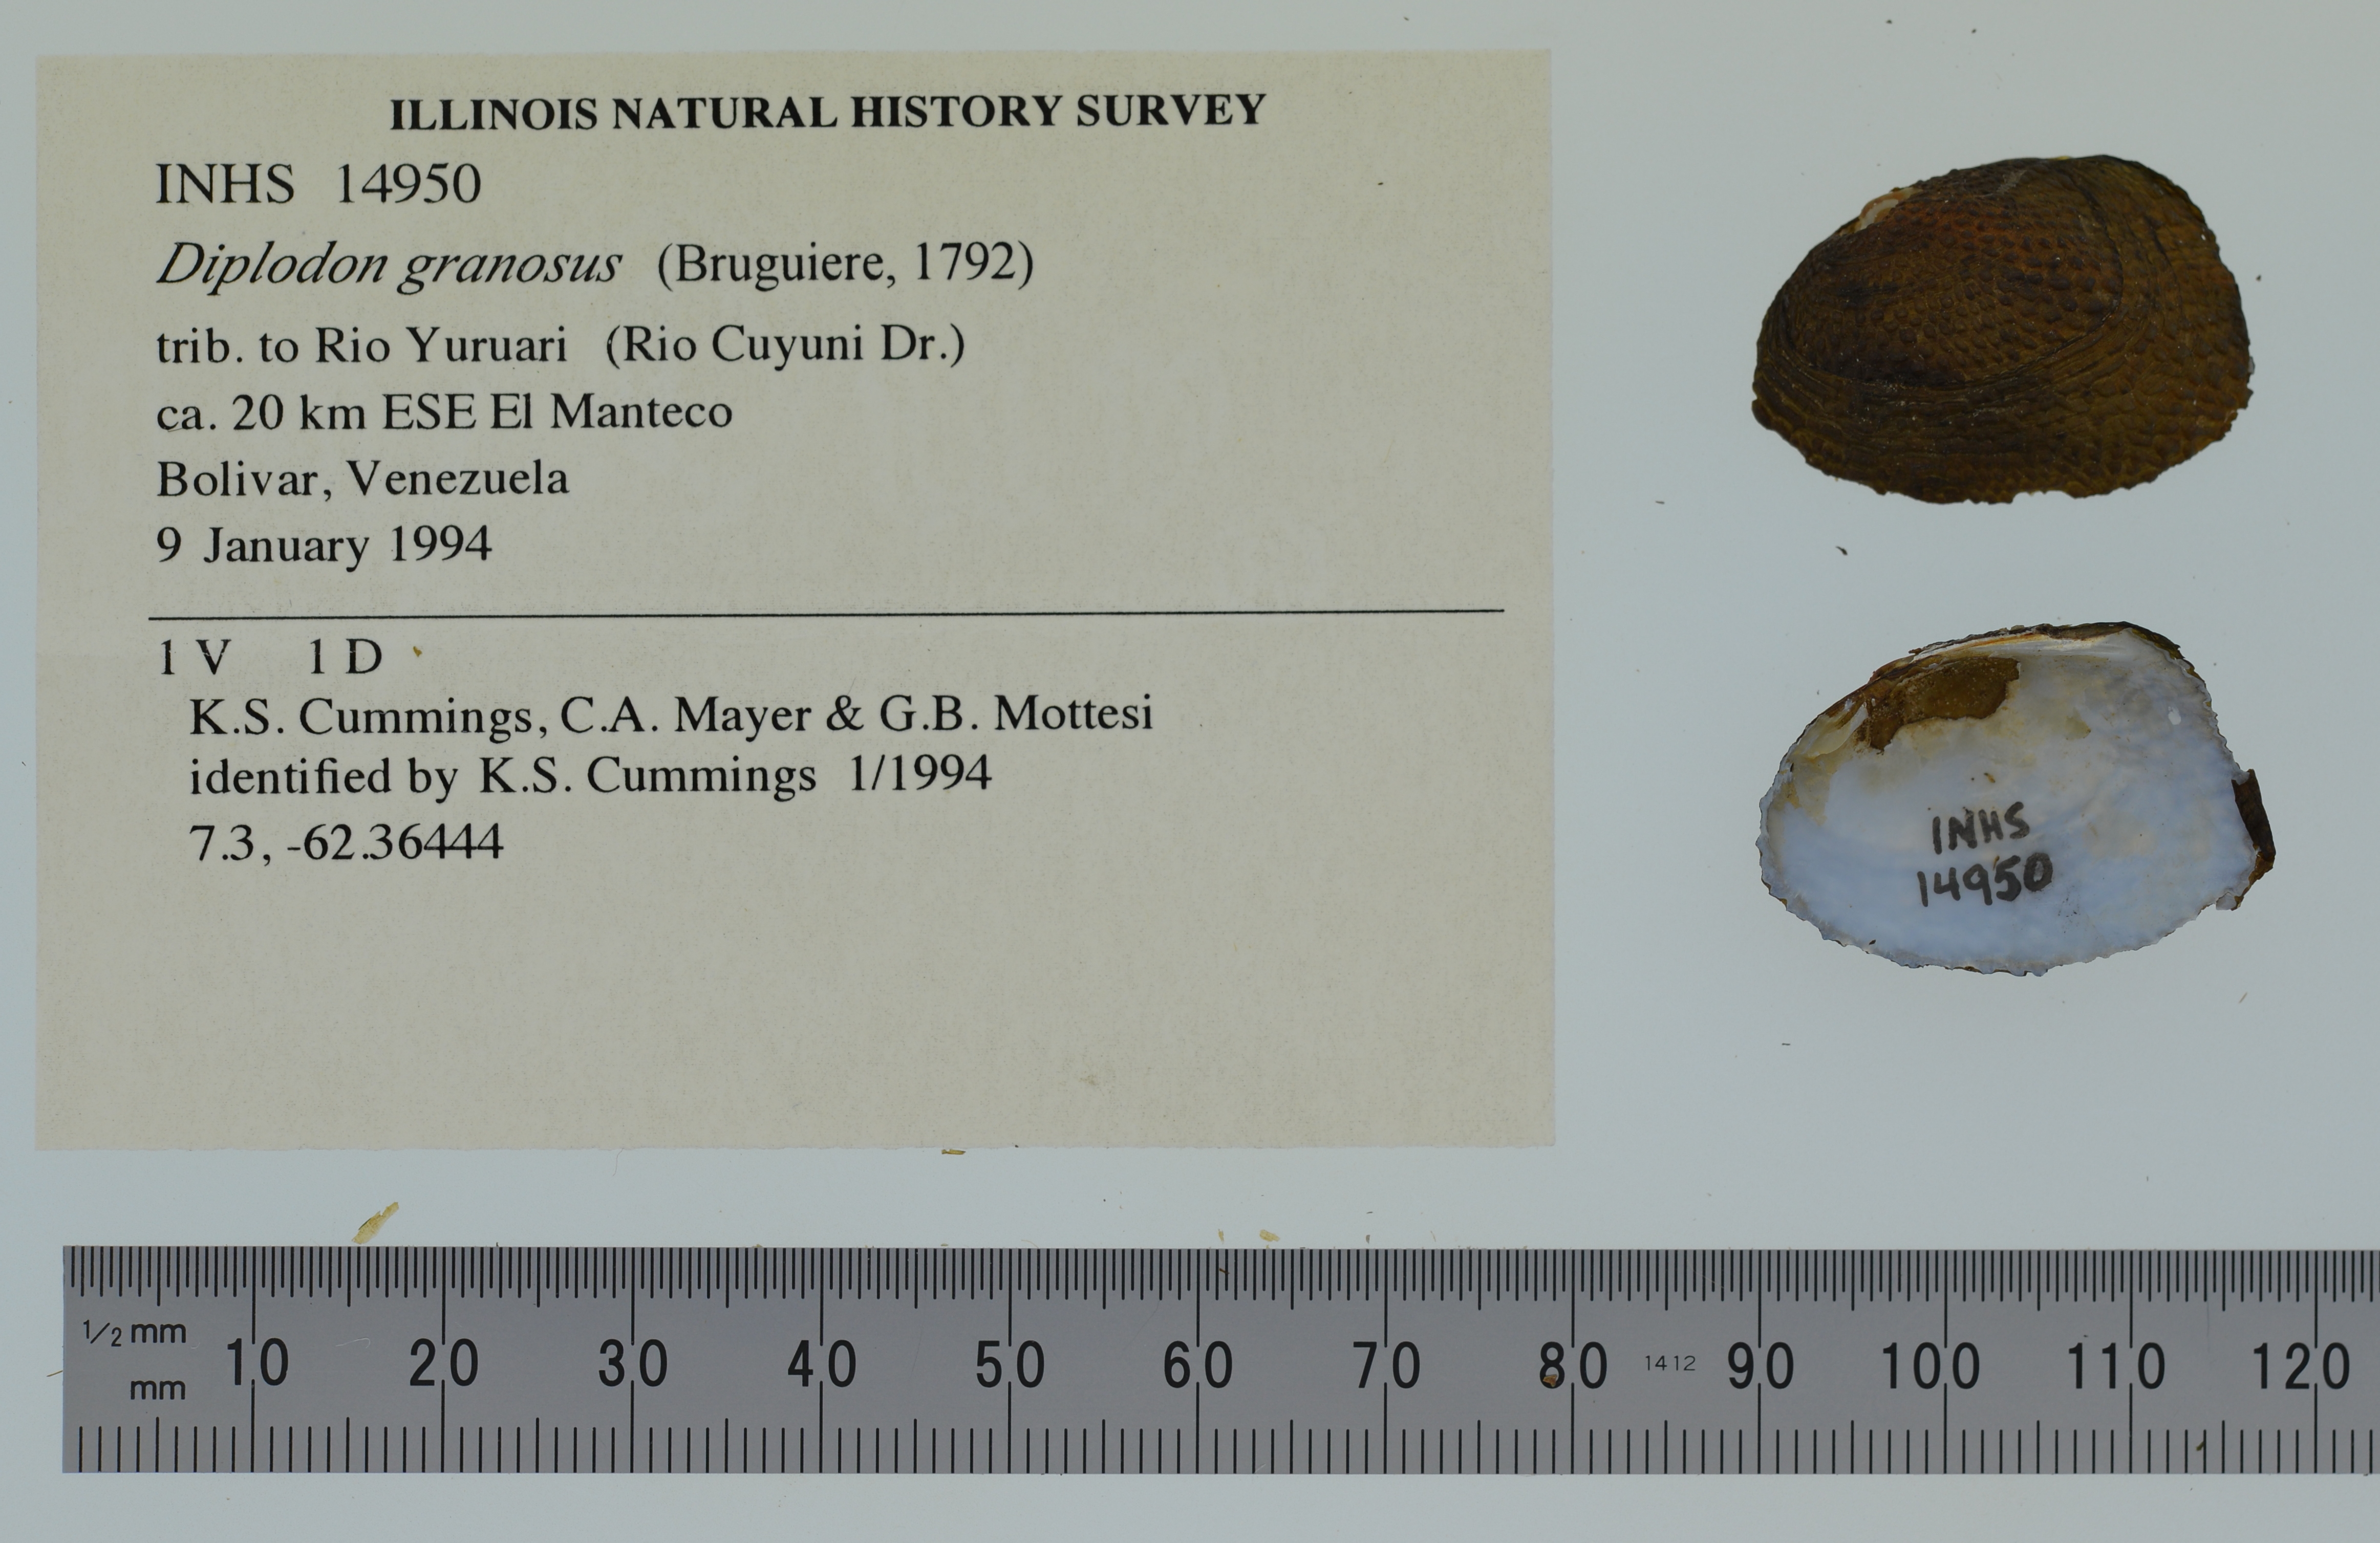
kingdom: Animalia
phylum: Mollusca
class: Bivalvia
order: Unionida
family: Hyriidae
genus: Diplodon
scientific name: Diplodon granosus
